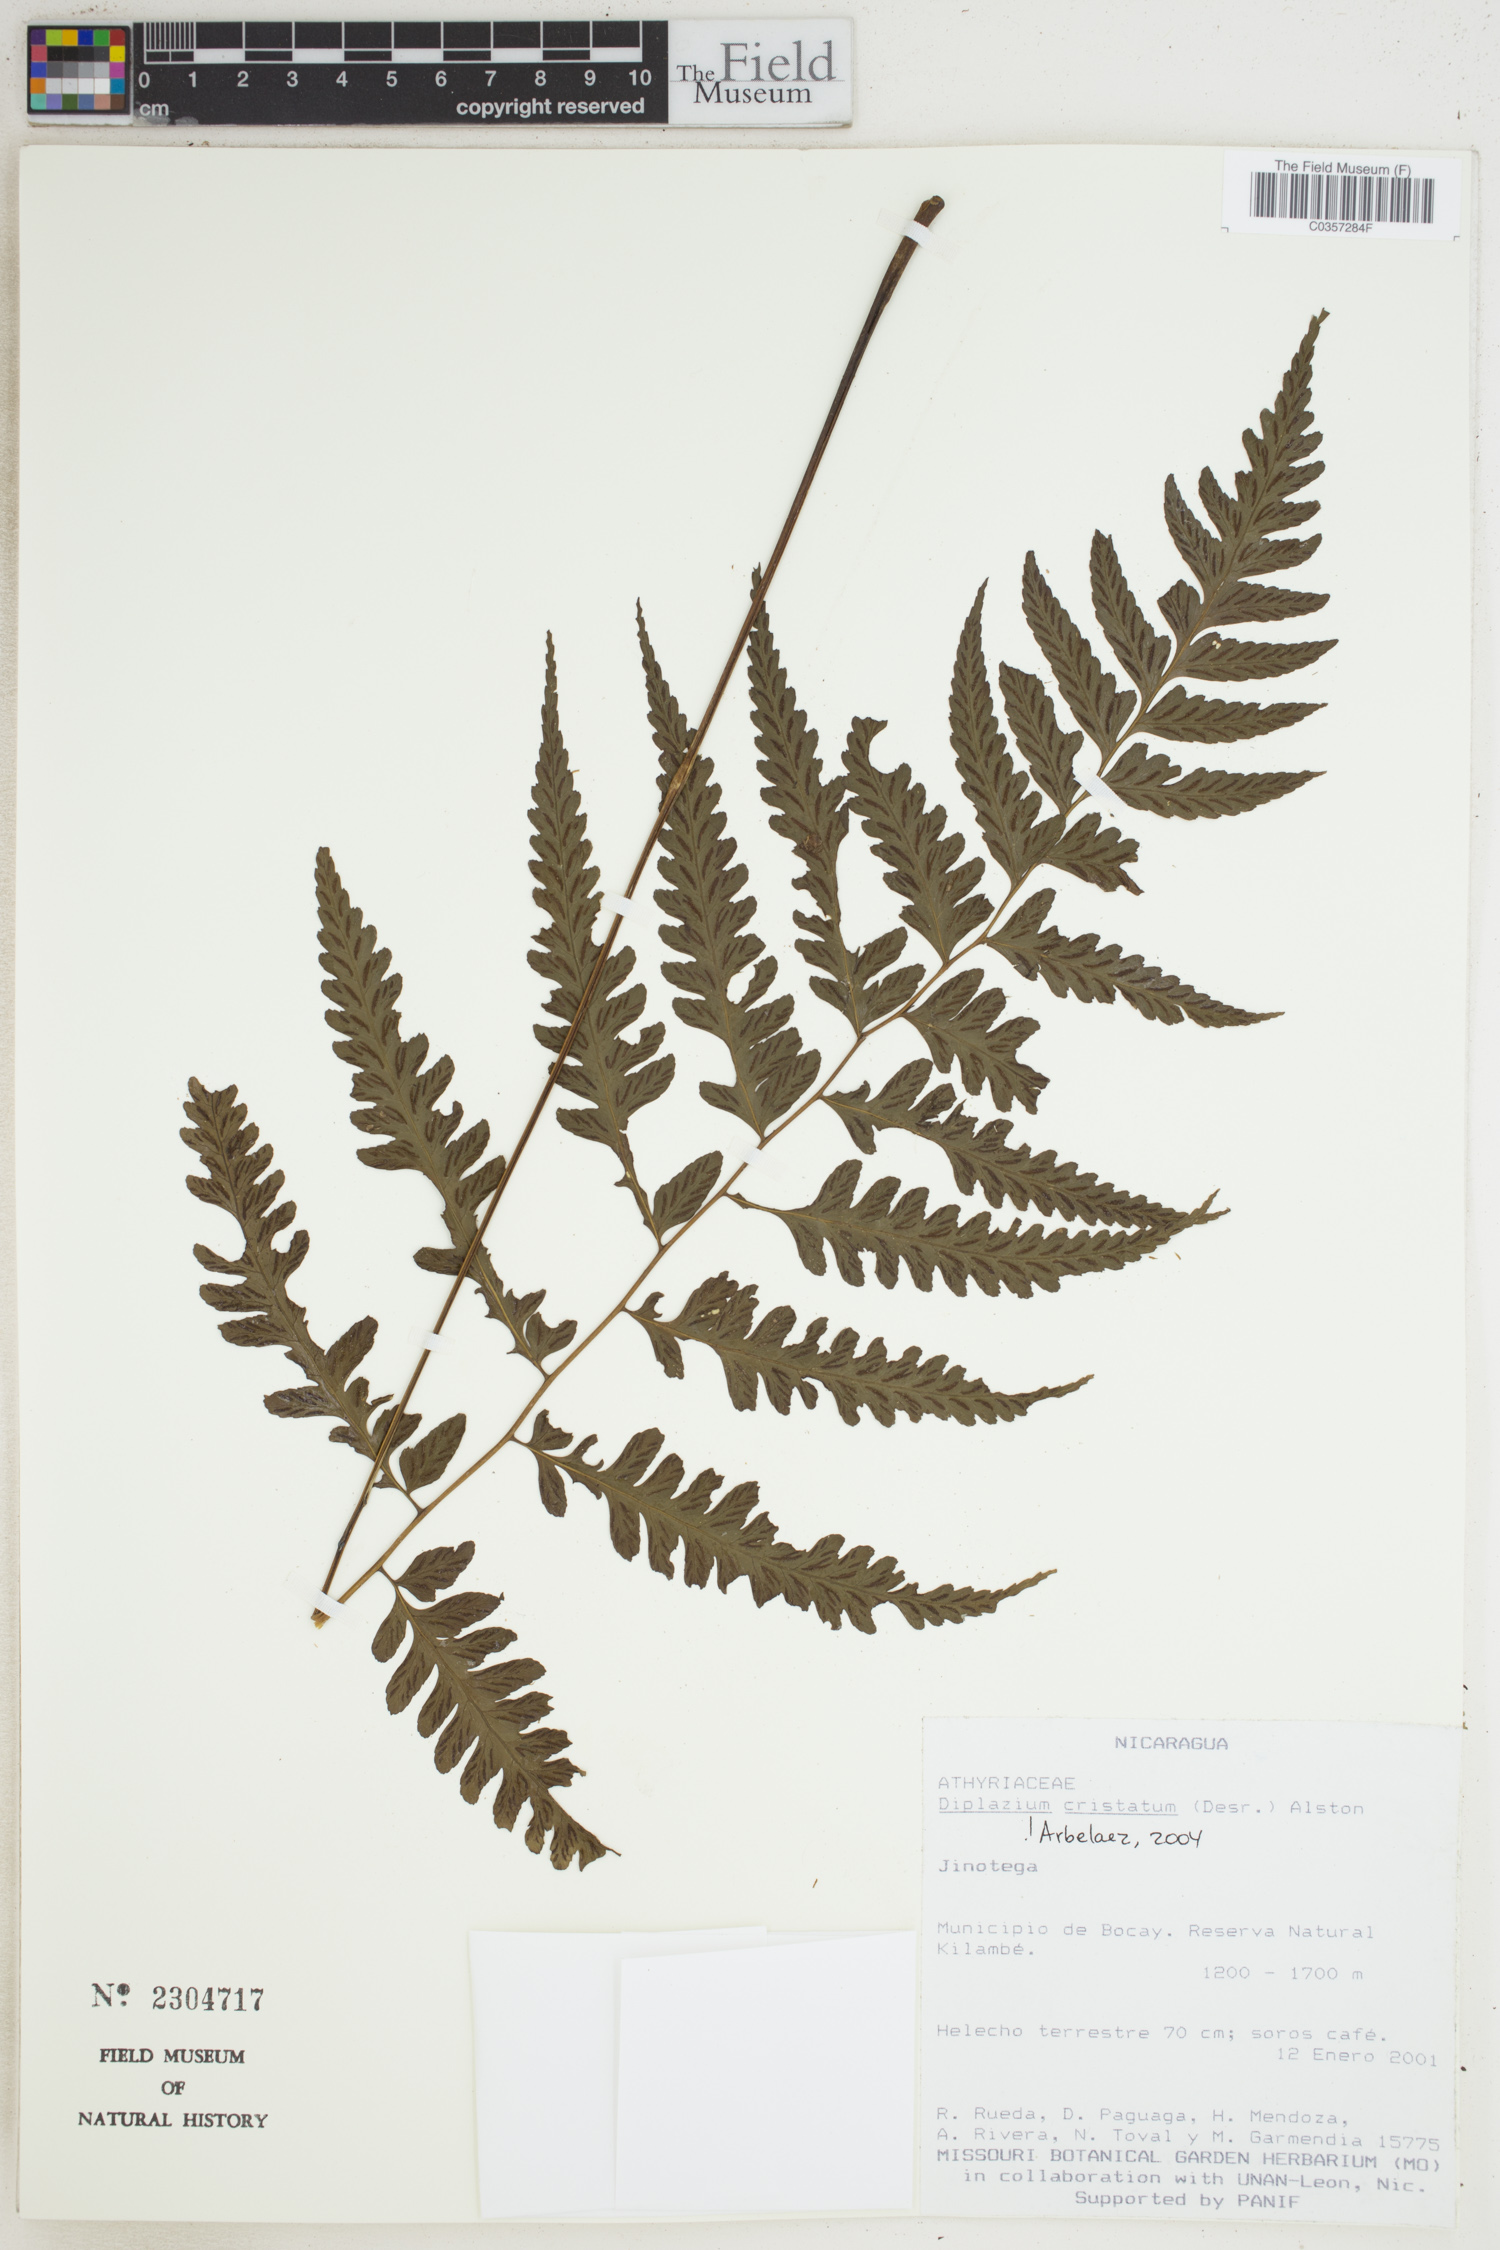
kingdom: Plantae
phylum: Tracheophyta
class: Polypodiopsida
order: Polypodiales
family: Athyriaceae
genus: Diplazium
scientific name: Diplazium cristatum
